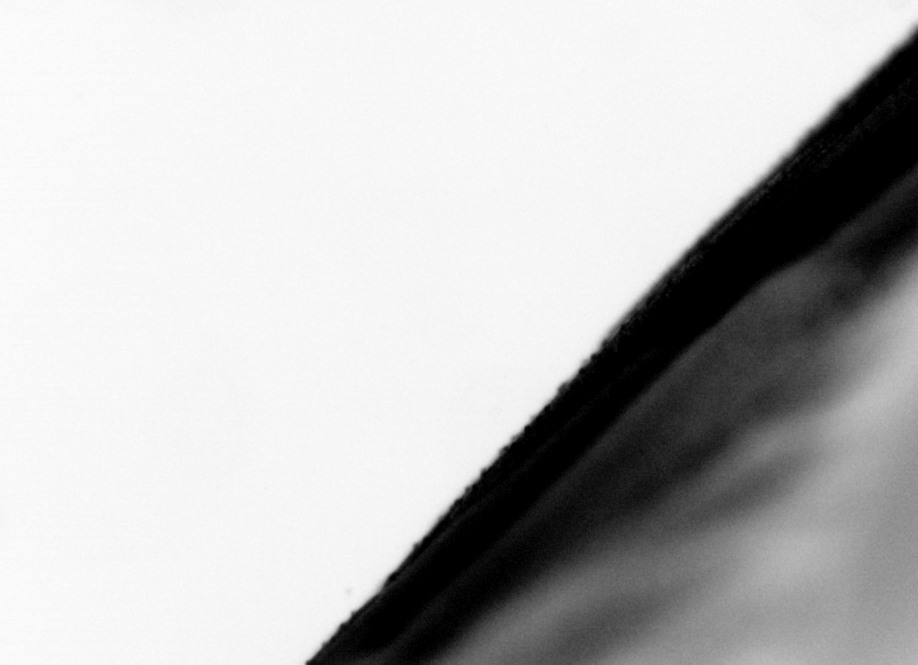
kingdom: Animalia
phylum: Chordata
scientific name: Chordata
